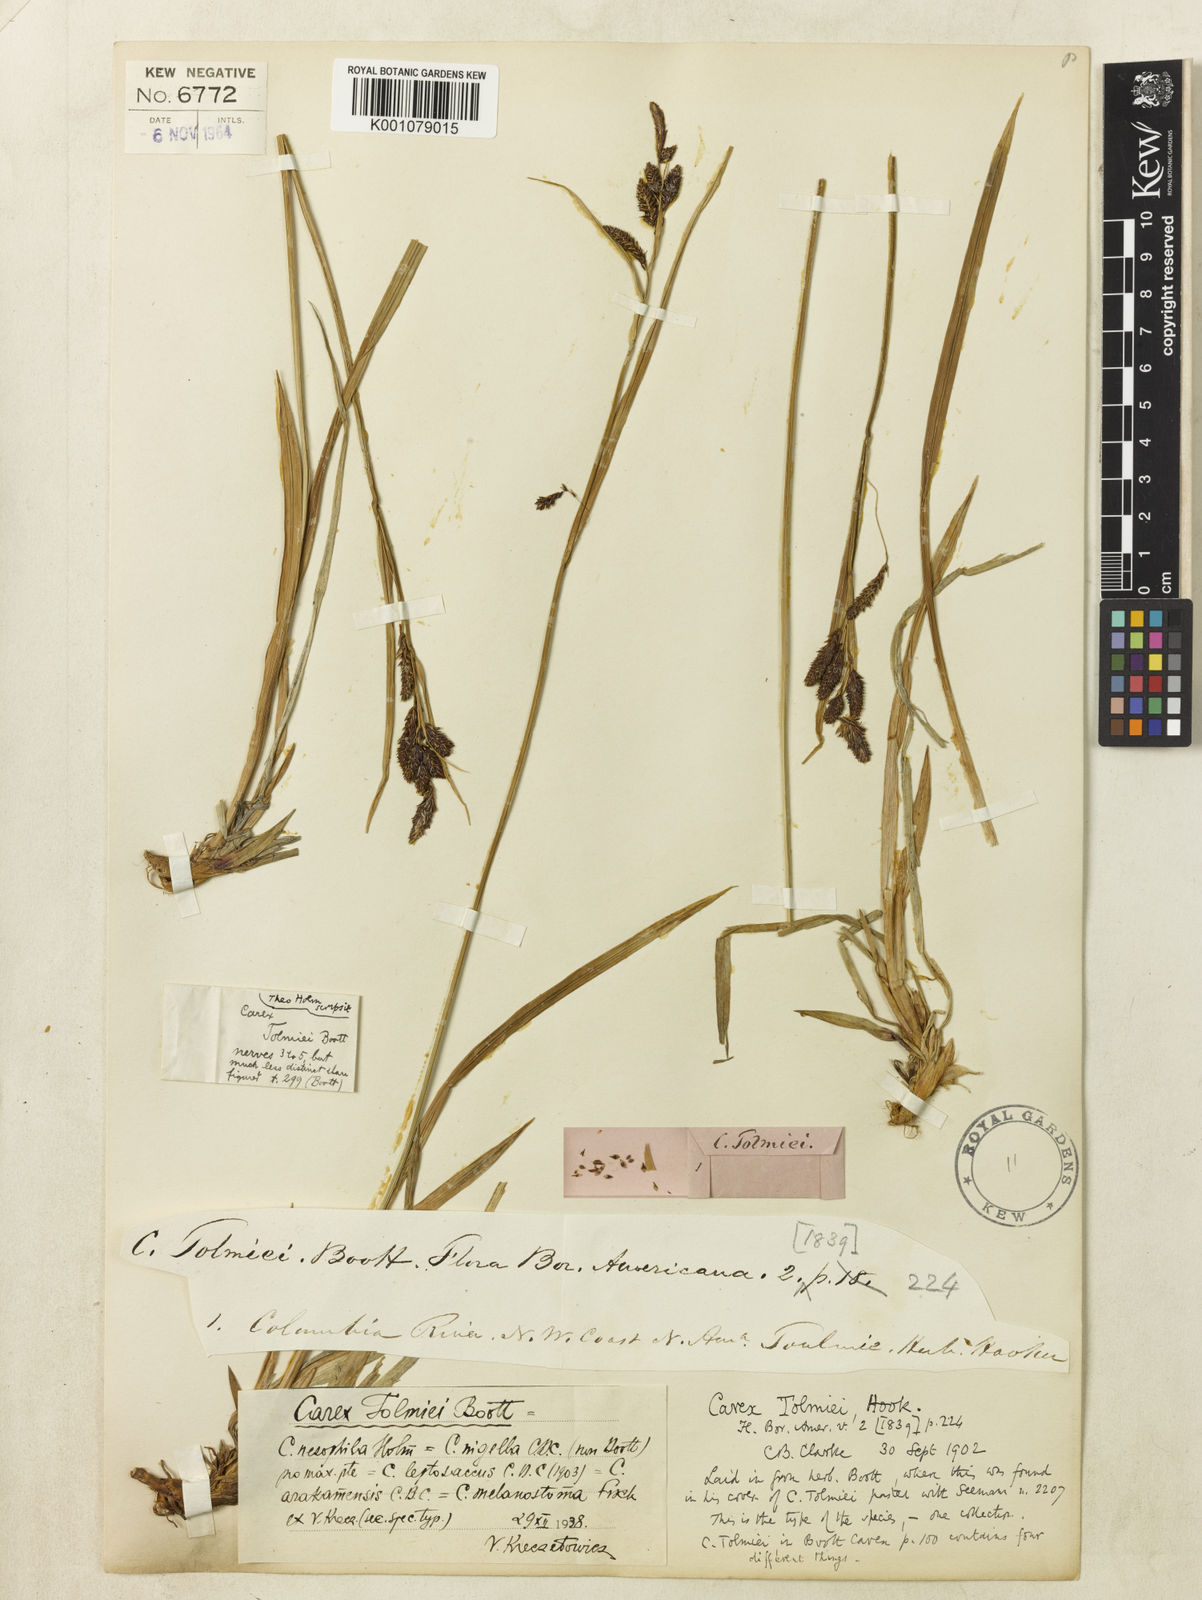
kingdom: Plantae
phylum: Tracheophyta
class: Liliopsida
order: Poales
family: Cyperaceae
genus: Carex
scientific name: Carex spectabilis
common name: Northwestern showy sedge
